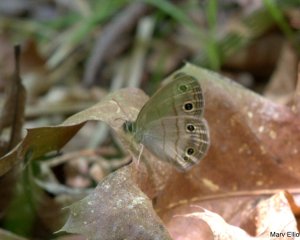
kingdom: Animalia
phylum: Arthropoda
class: Insecta
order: Lepidoptera
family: Nymphalidae
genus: Euptychia
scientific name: Euptychia cymela
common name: Little Wood Satyr
